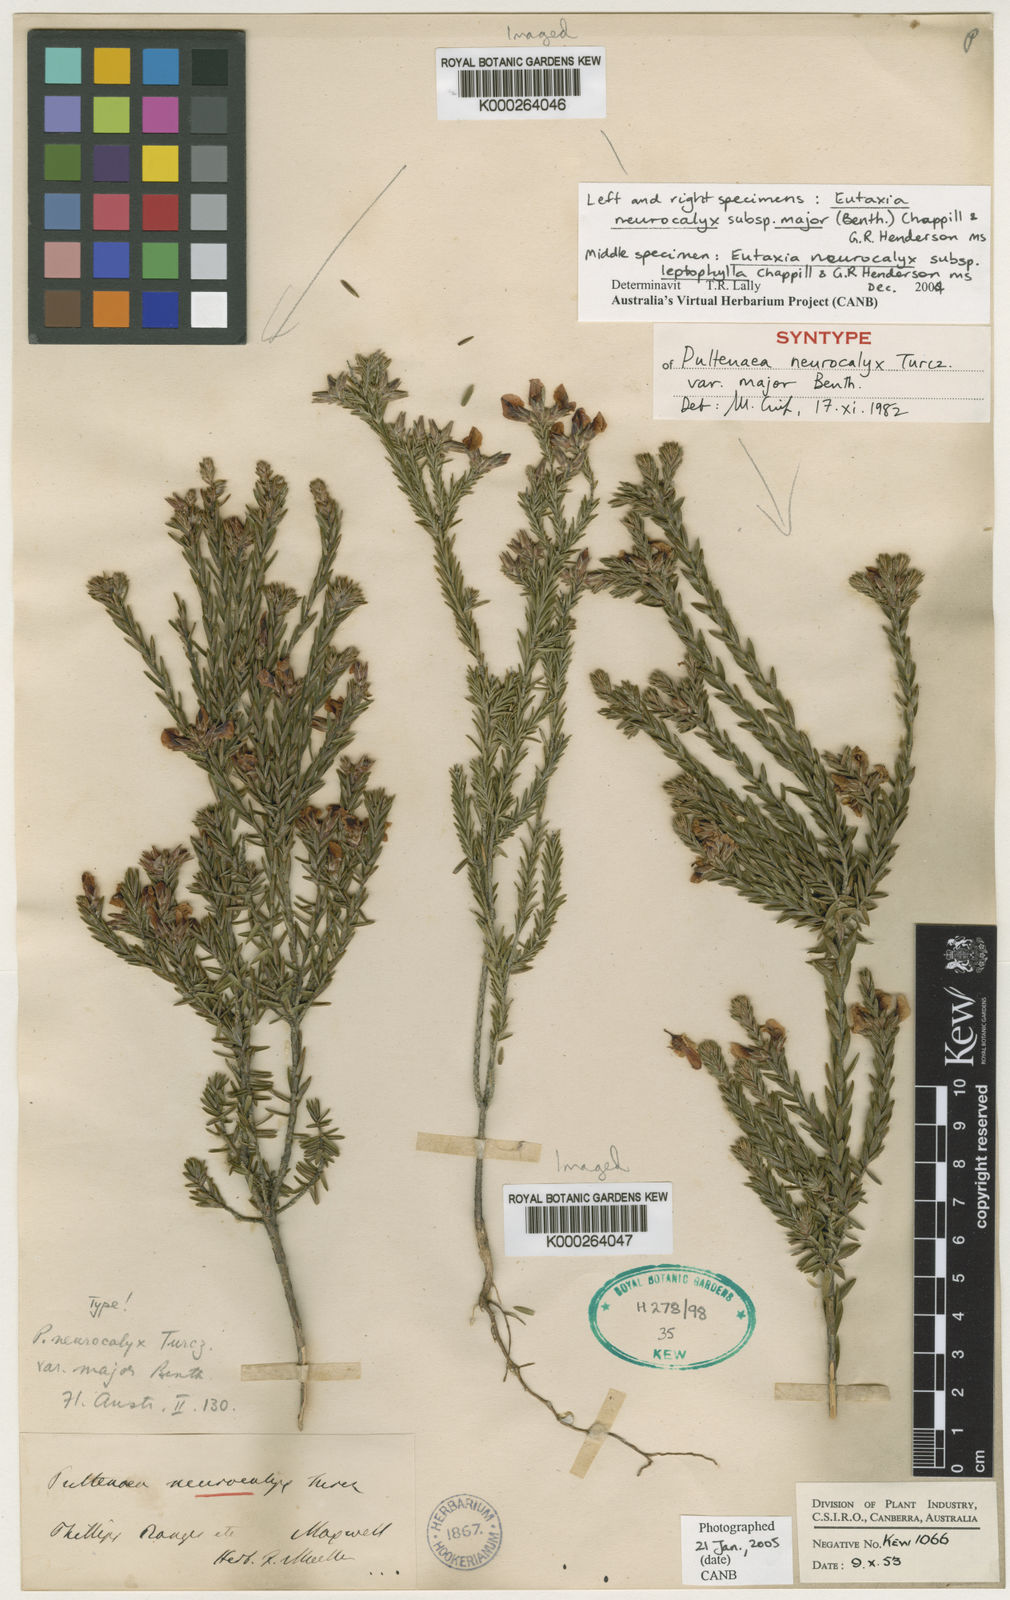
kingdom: Plantae
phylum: Tracheophyta
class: Magnoliopsida
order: Fabales
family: Fabaceae
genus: Eutaxia
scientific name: Eutaxia neurocalyx
